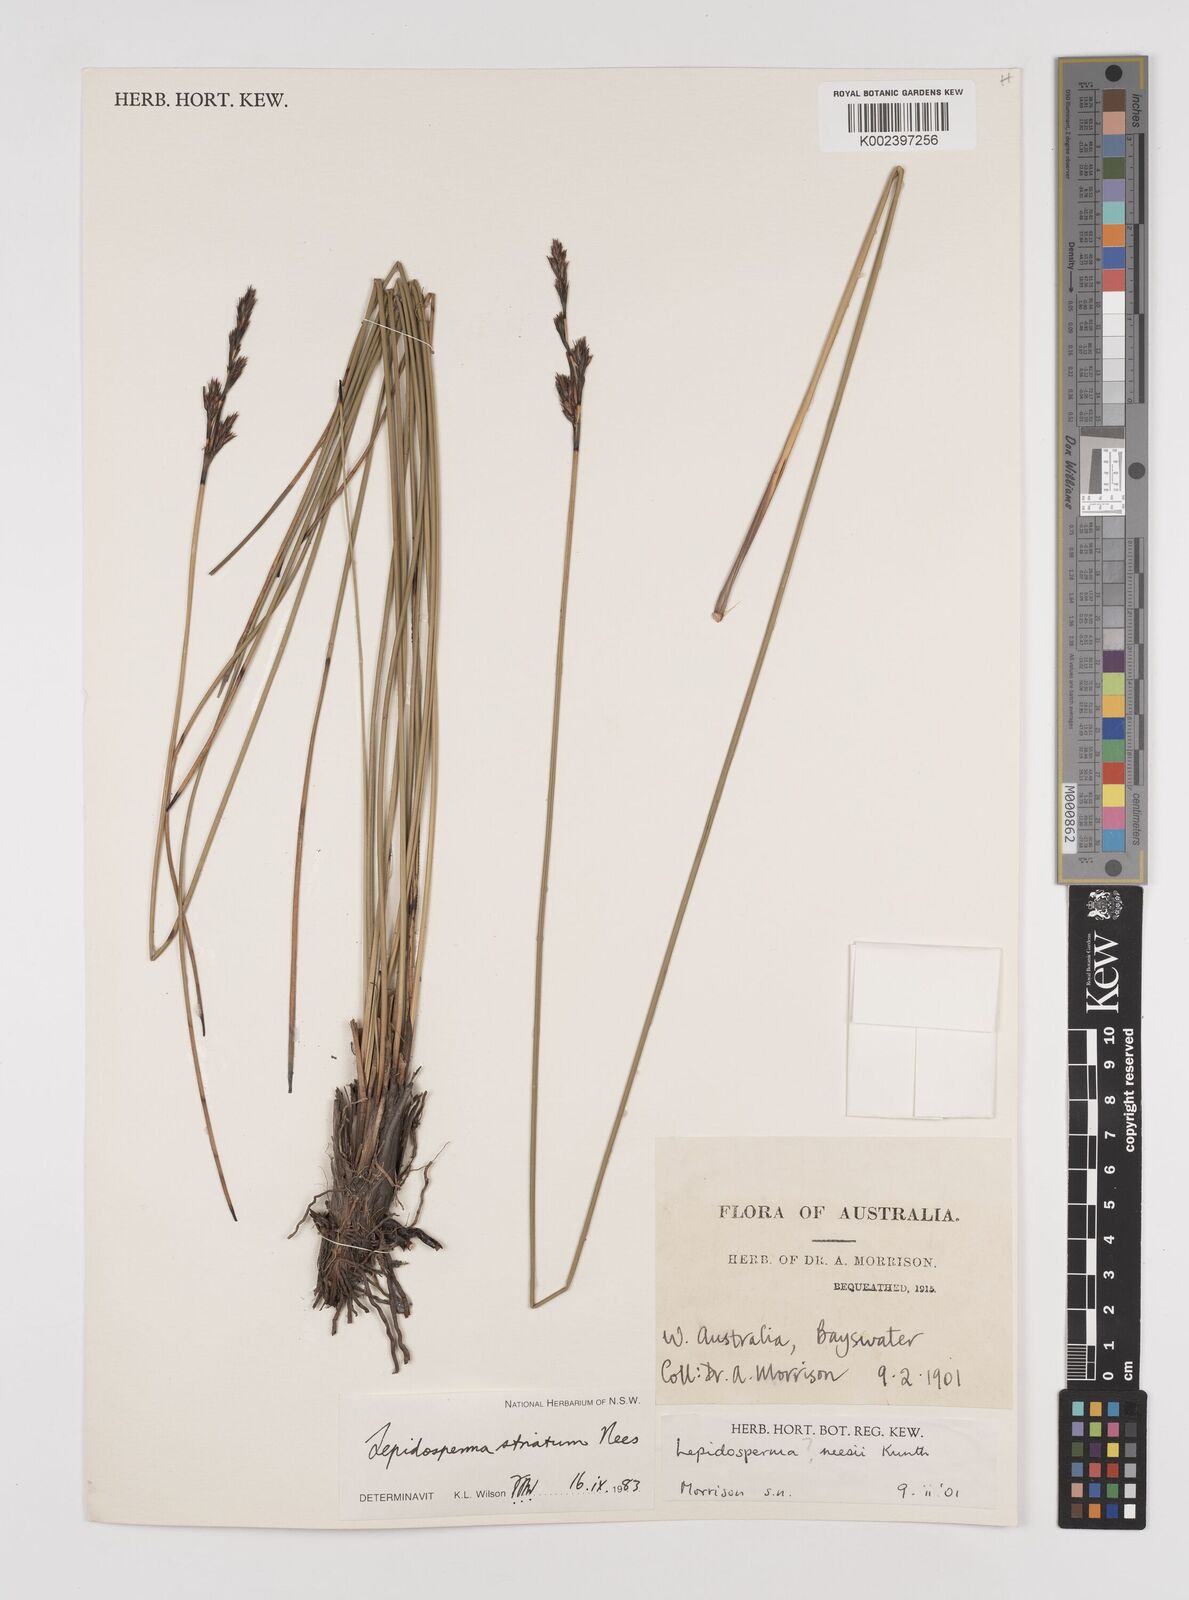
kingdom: Plantae
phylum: Tracheophyta
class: Liliopsida
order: Poales
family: Cyperaceae
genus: Lepidosperma
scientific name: Lepidosperma striatum
